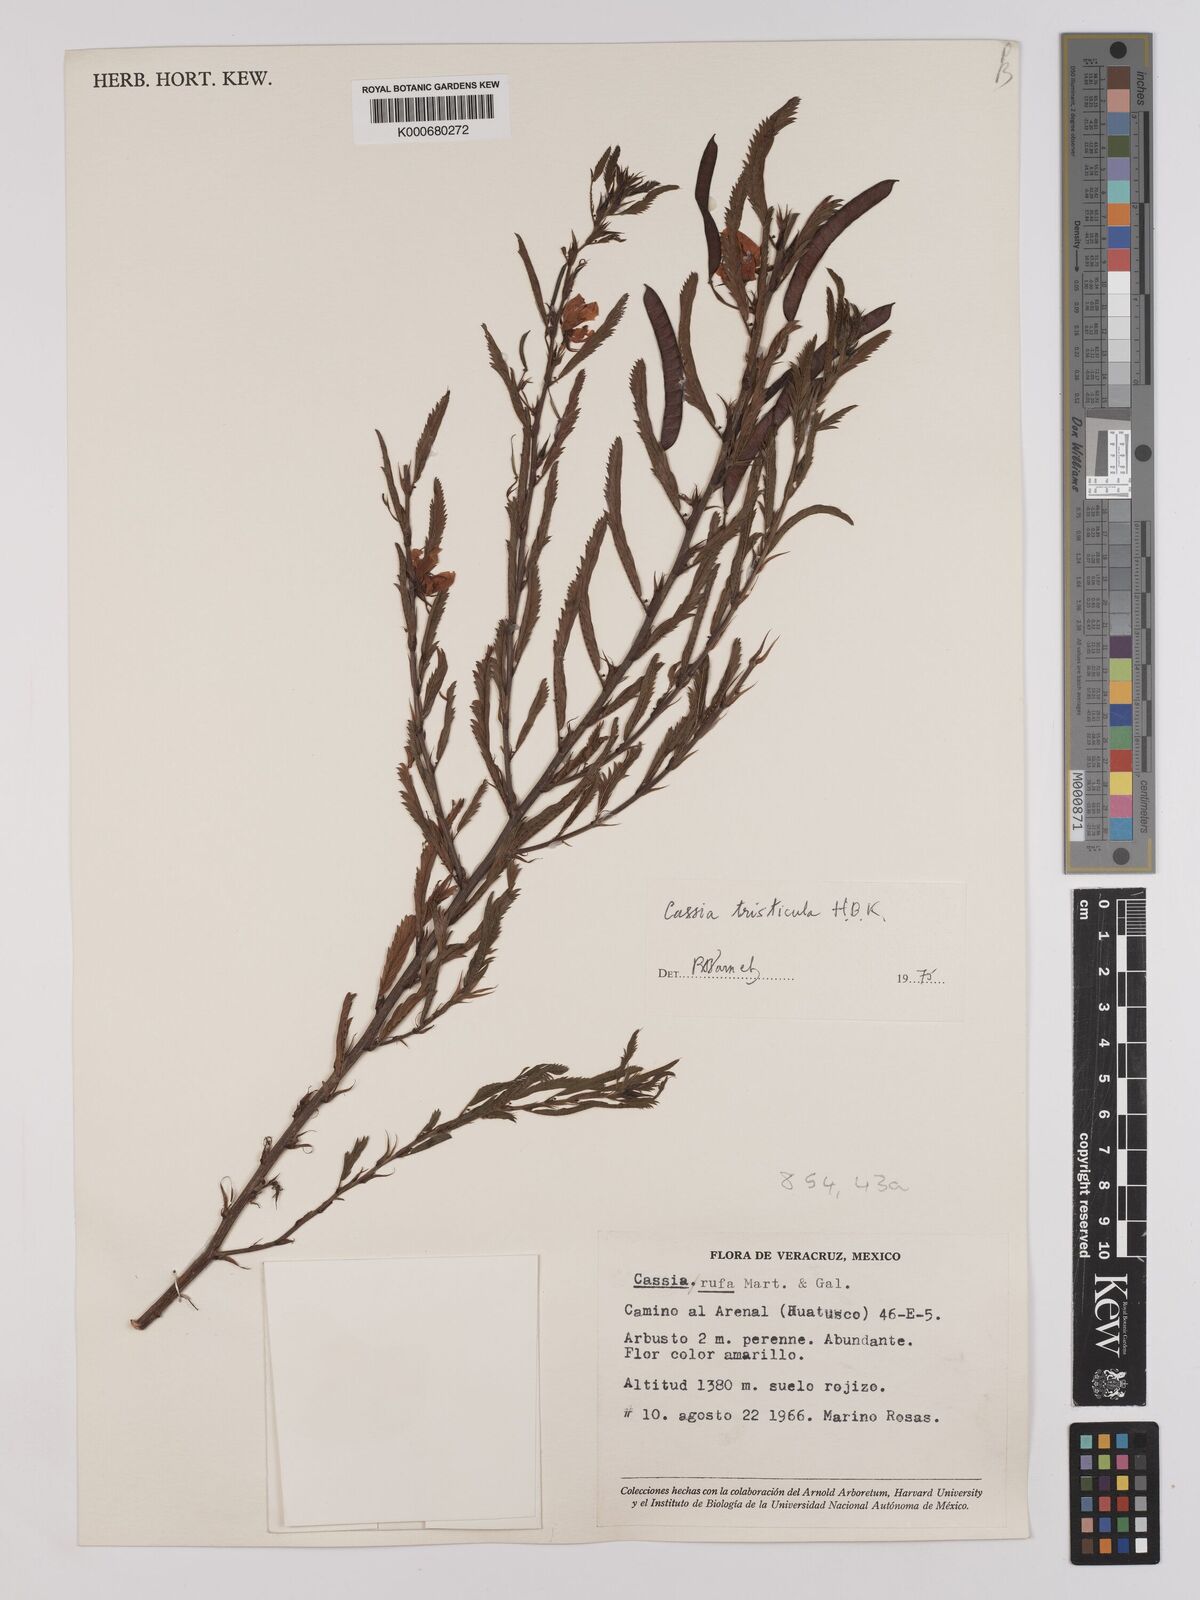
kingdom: Plantae
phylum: Tracheophyta
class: Magnoliopsida
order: Fabales
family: Fabaceae
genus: Chamaecrista
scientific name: Chamaecrista glandulosa
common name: Wild peas
